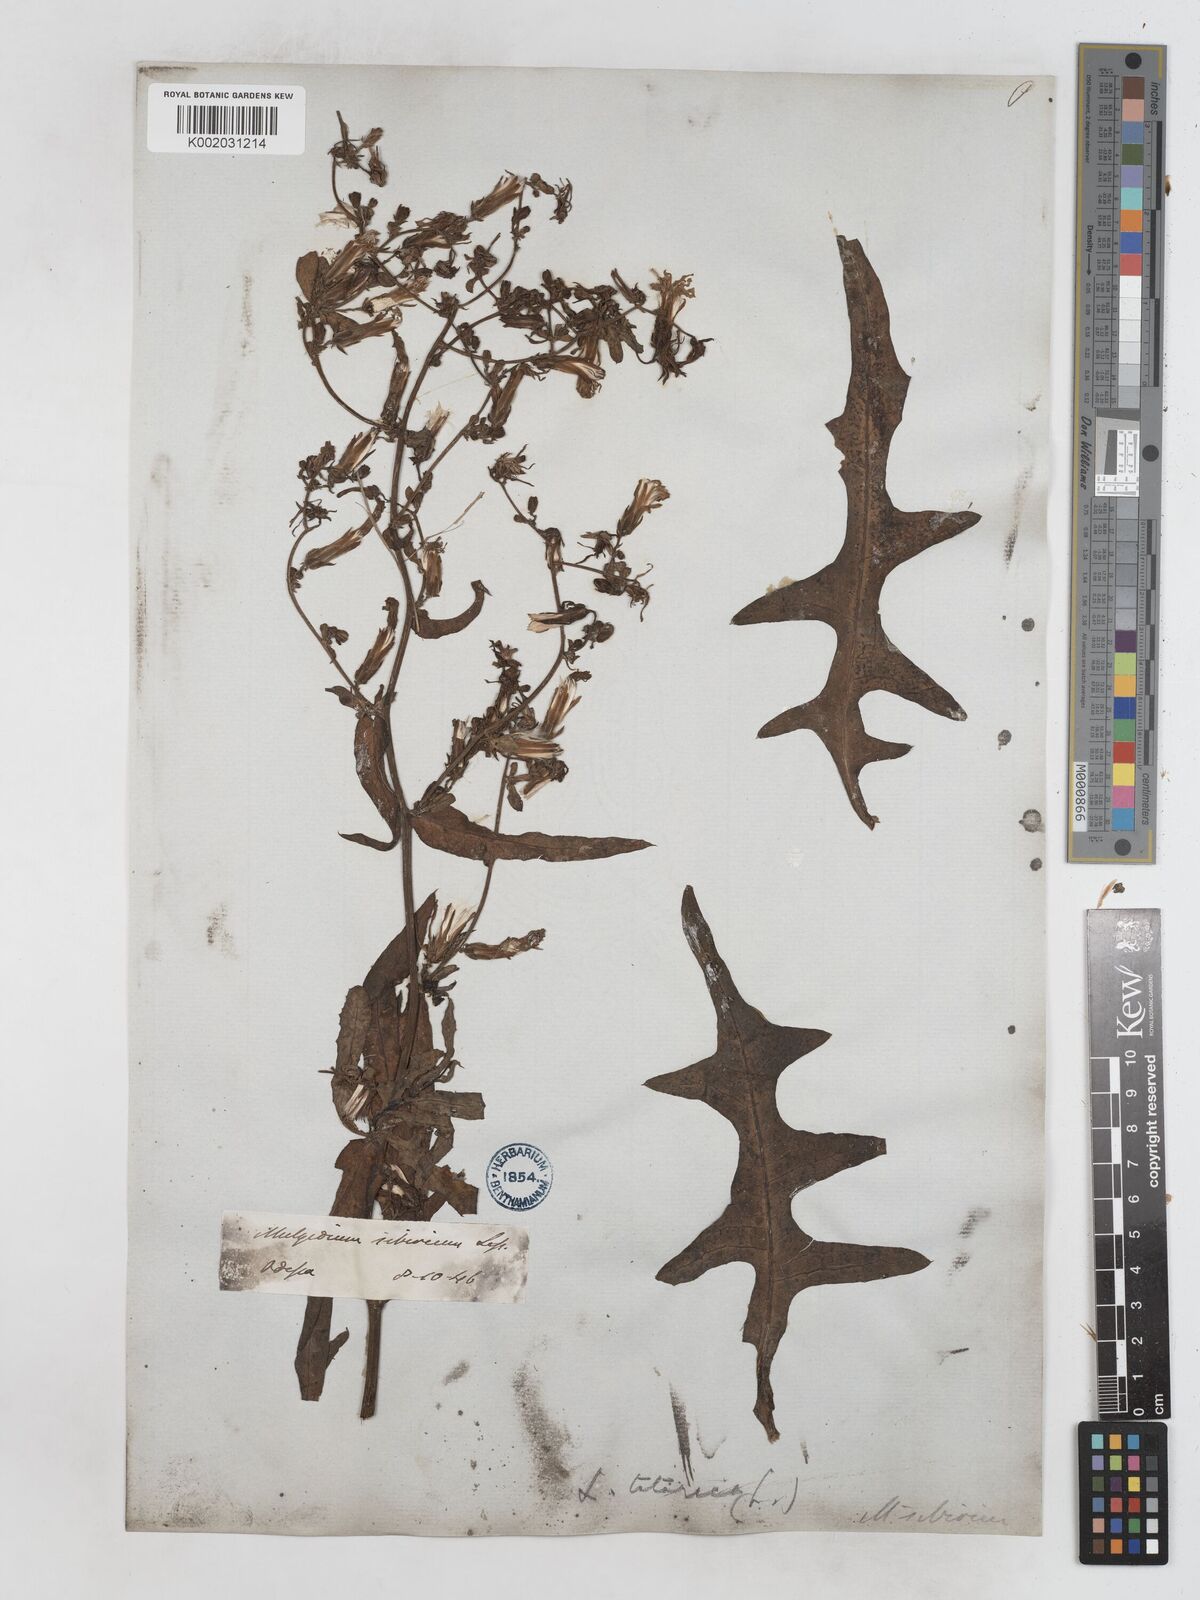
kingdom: Plantae
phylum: Tracheophyta
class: Magnoliopsida
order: Asterales
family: Asteraceae
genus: Lactuca
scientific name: Lactuca tatarica
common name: Blue lettuce
